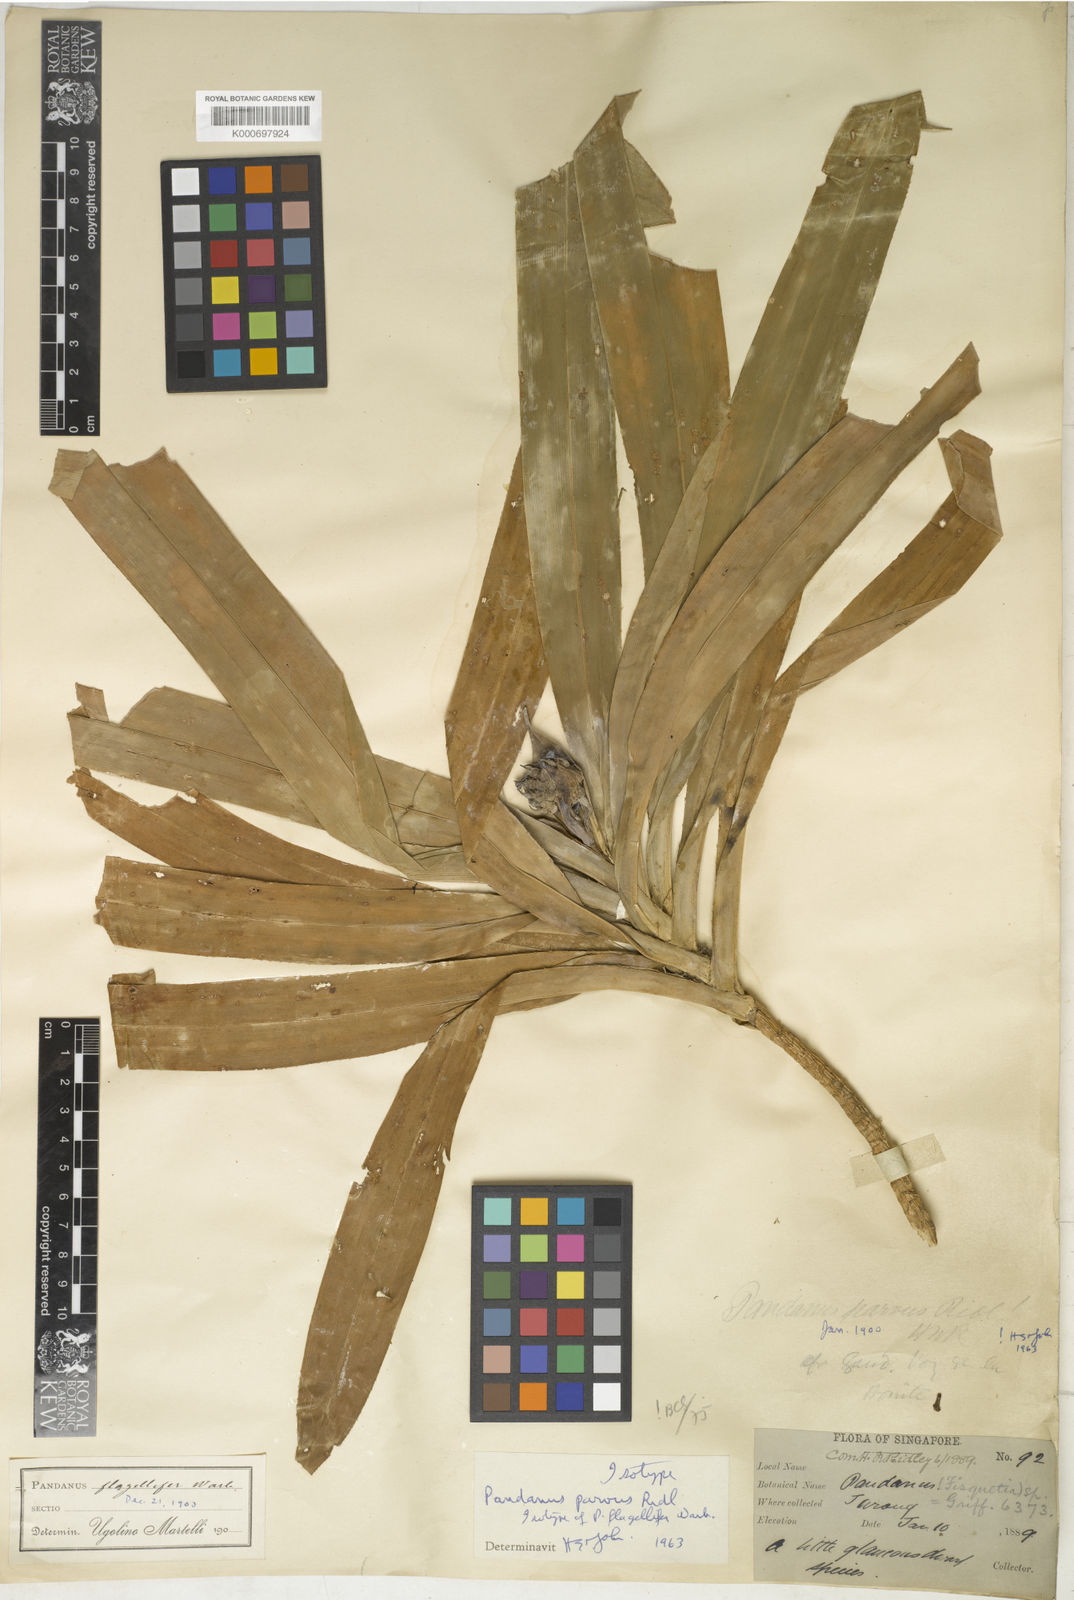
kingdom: Plantae
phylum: Tracheophyta
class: Liliopsida
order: Pandanales
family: Pandanaceae
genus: Benstonea
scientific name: Benstonea parva
